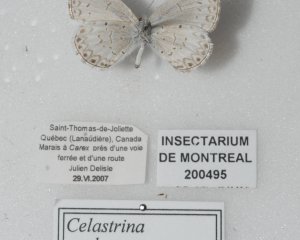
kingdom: Animalia
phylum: Arthropoda
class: Insecta
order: Lepidoptera
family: Lycaenidae
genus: Cyaniris
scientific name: Cyaniris neglecta
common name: Summer Azure
